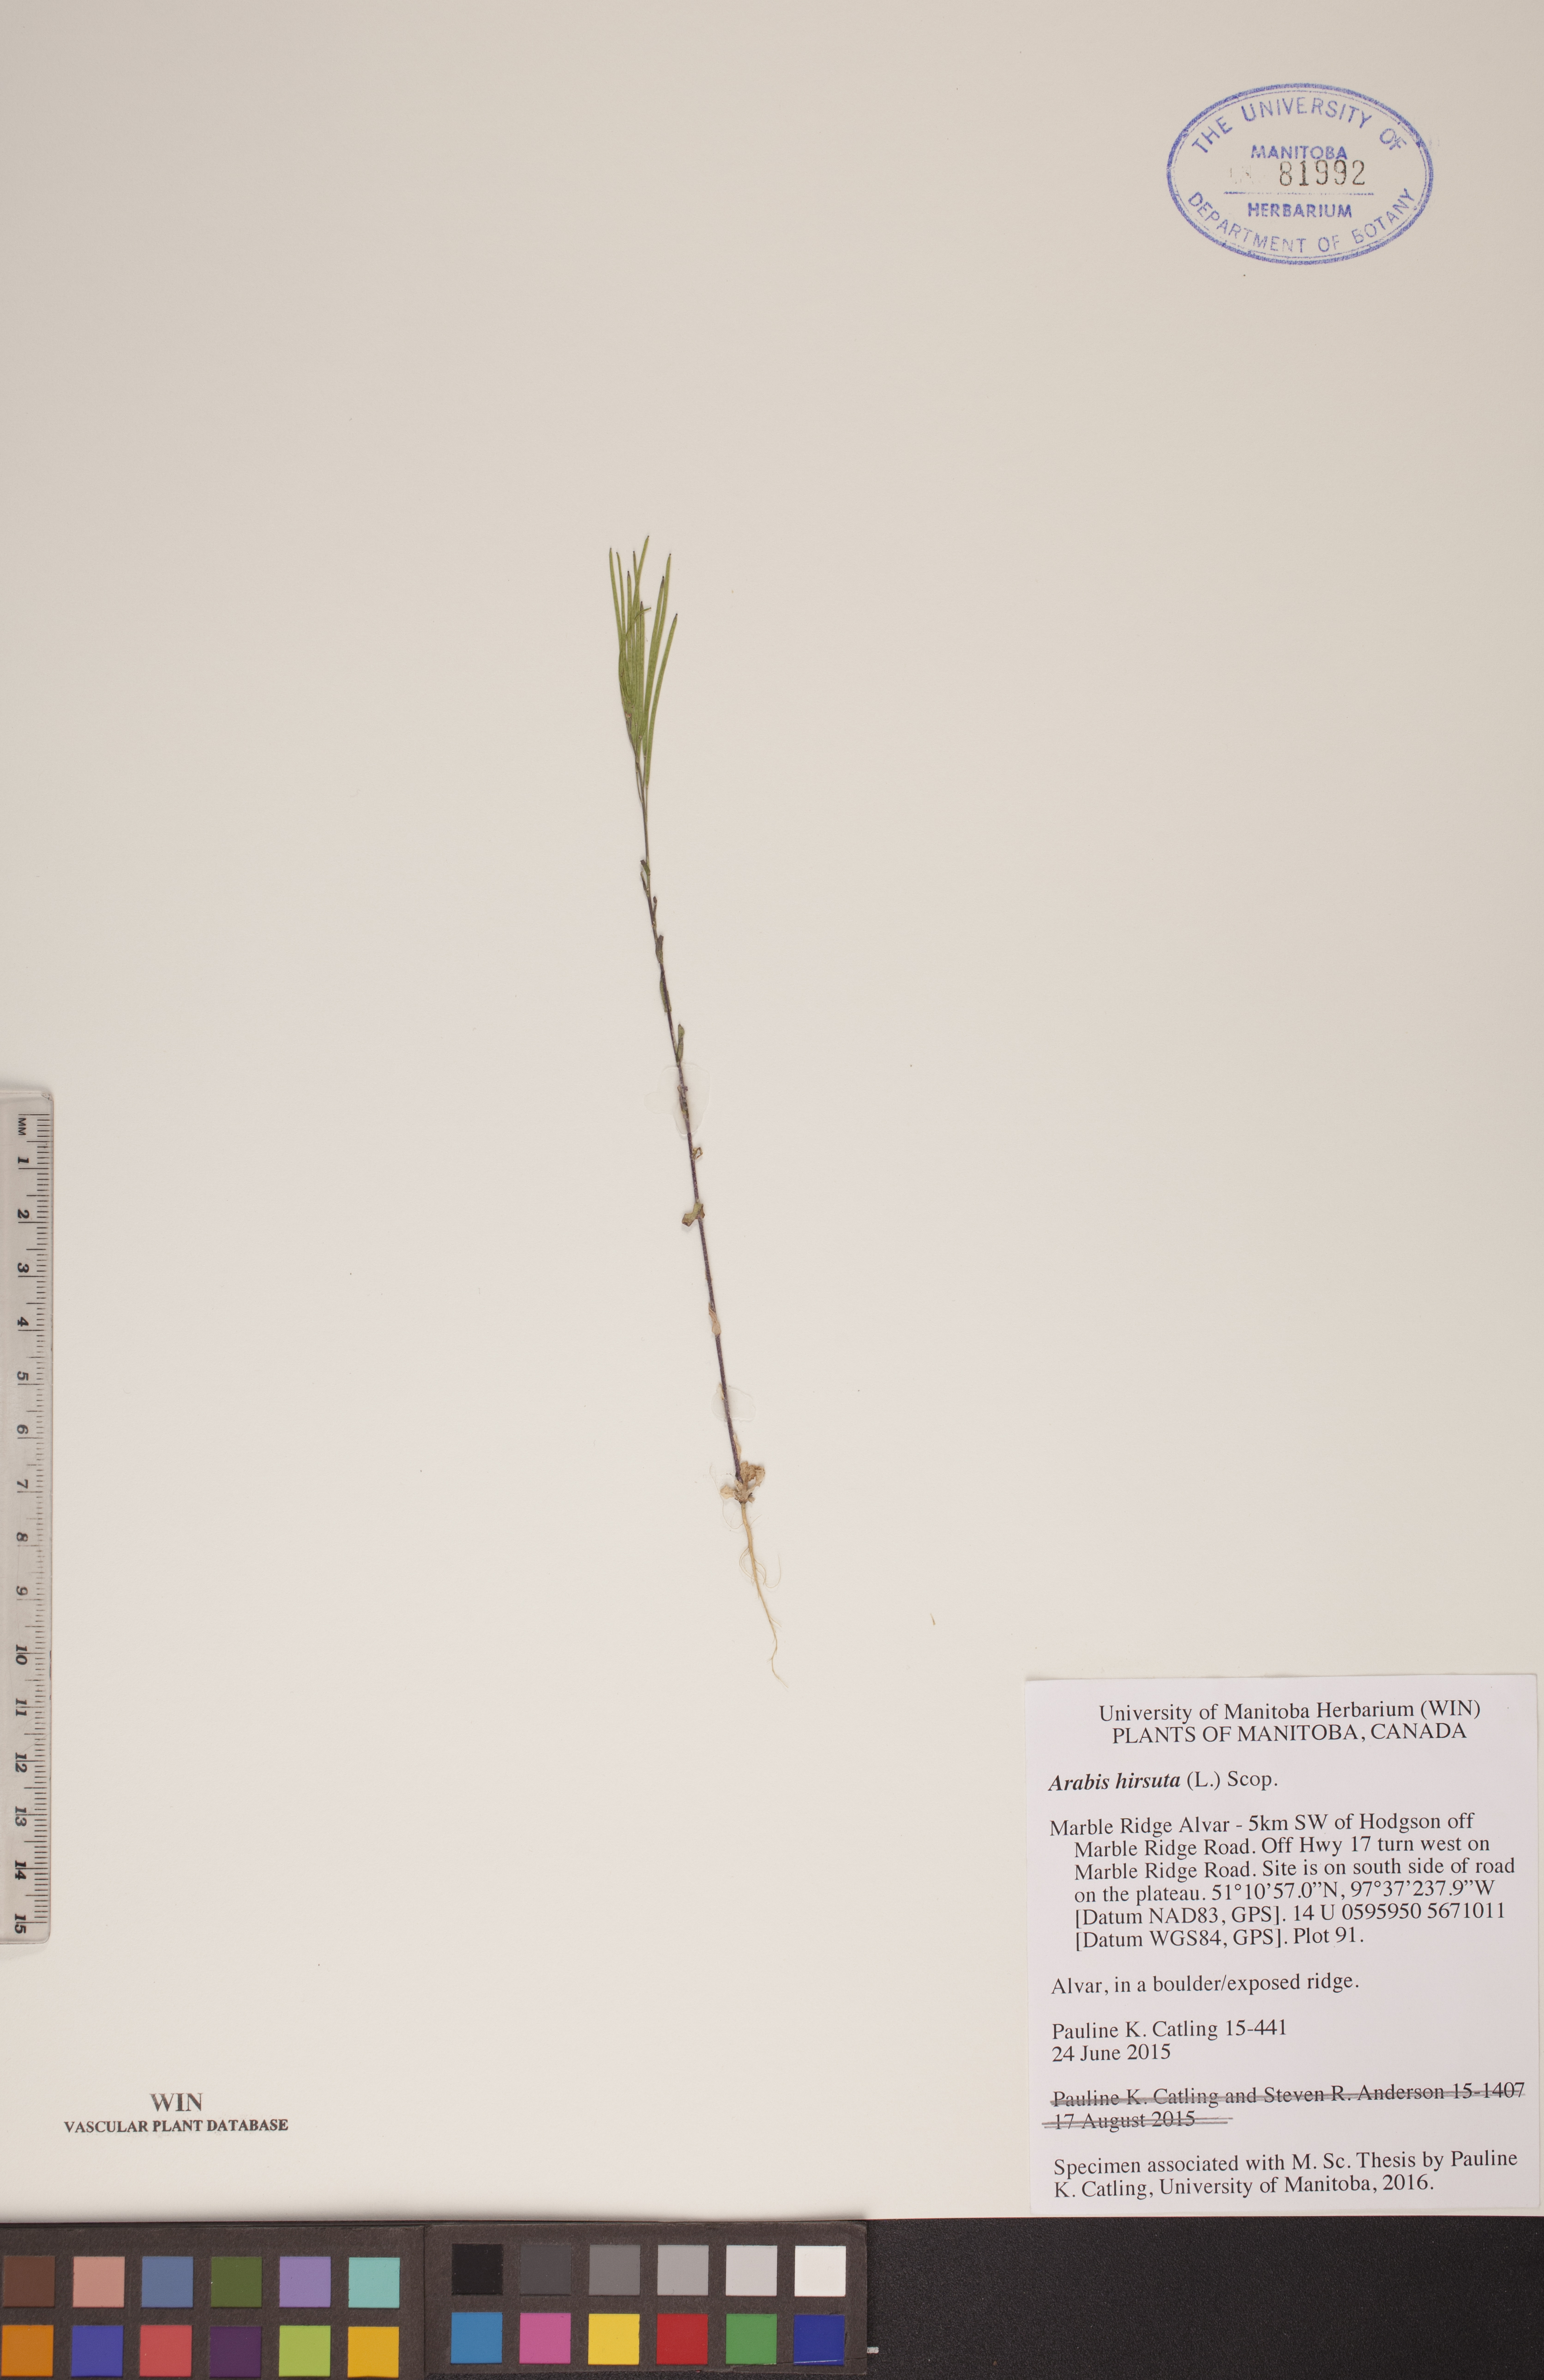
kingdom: Plantae
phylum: Tracheophyta
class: Magnoliopsida
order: Brassicales
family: Brassicaceae
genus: Arabis
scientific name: Arabis hirsuta
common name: Hairy rock-cress
